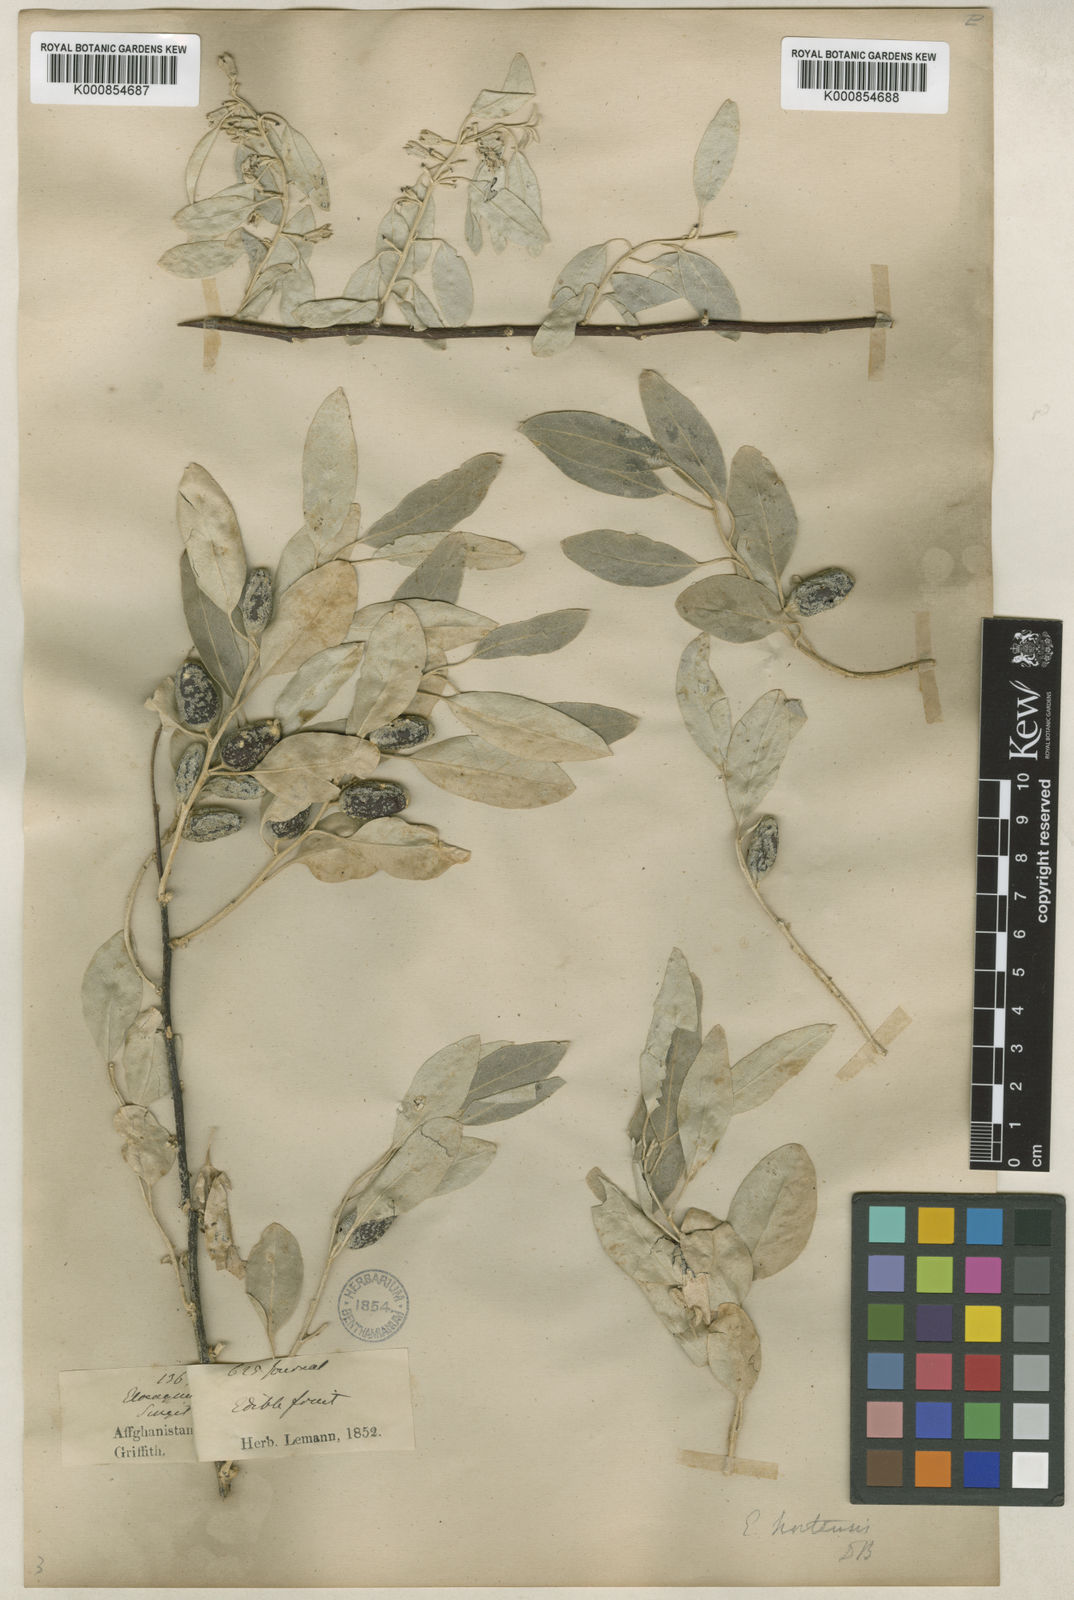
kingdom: Plantae
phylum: Tracheophyta
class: Magnoliopsida
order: Rosales
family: Elaeagnaceae
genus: Elaeagnus
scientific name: Elaeagnus griffithii
